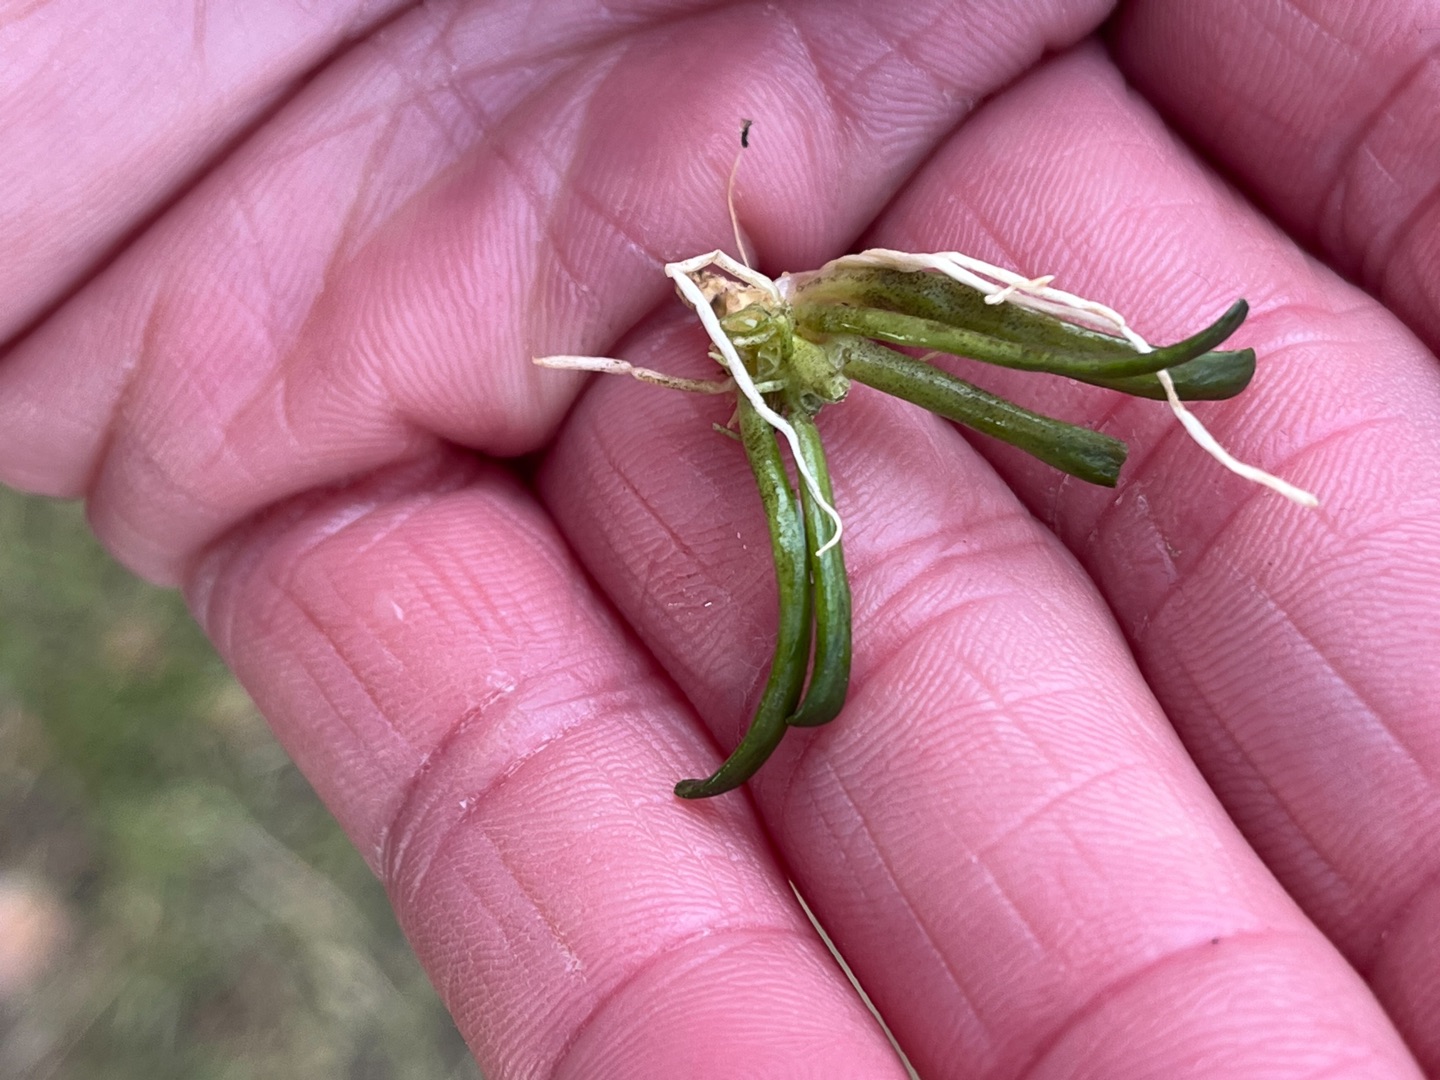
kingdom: Plantae
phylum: Tracheophyta
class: Magnoliopsida
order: Asterales
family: Campanulaceae
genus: Lobelia
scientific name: Lobelia dortmanna
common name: Tvepibet lobelie
